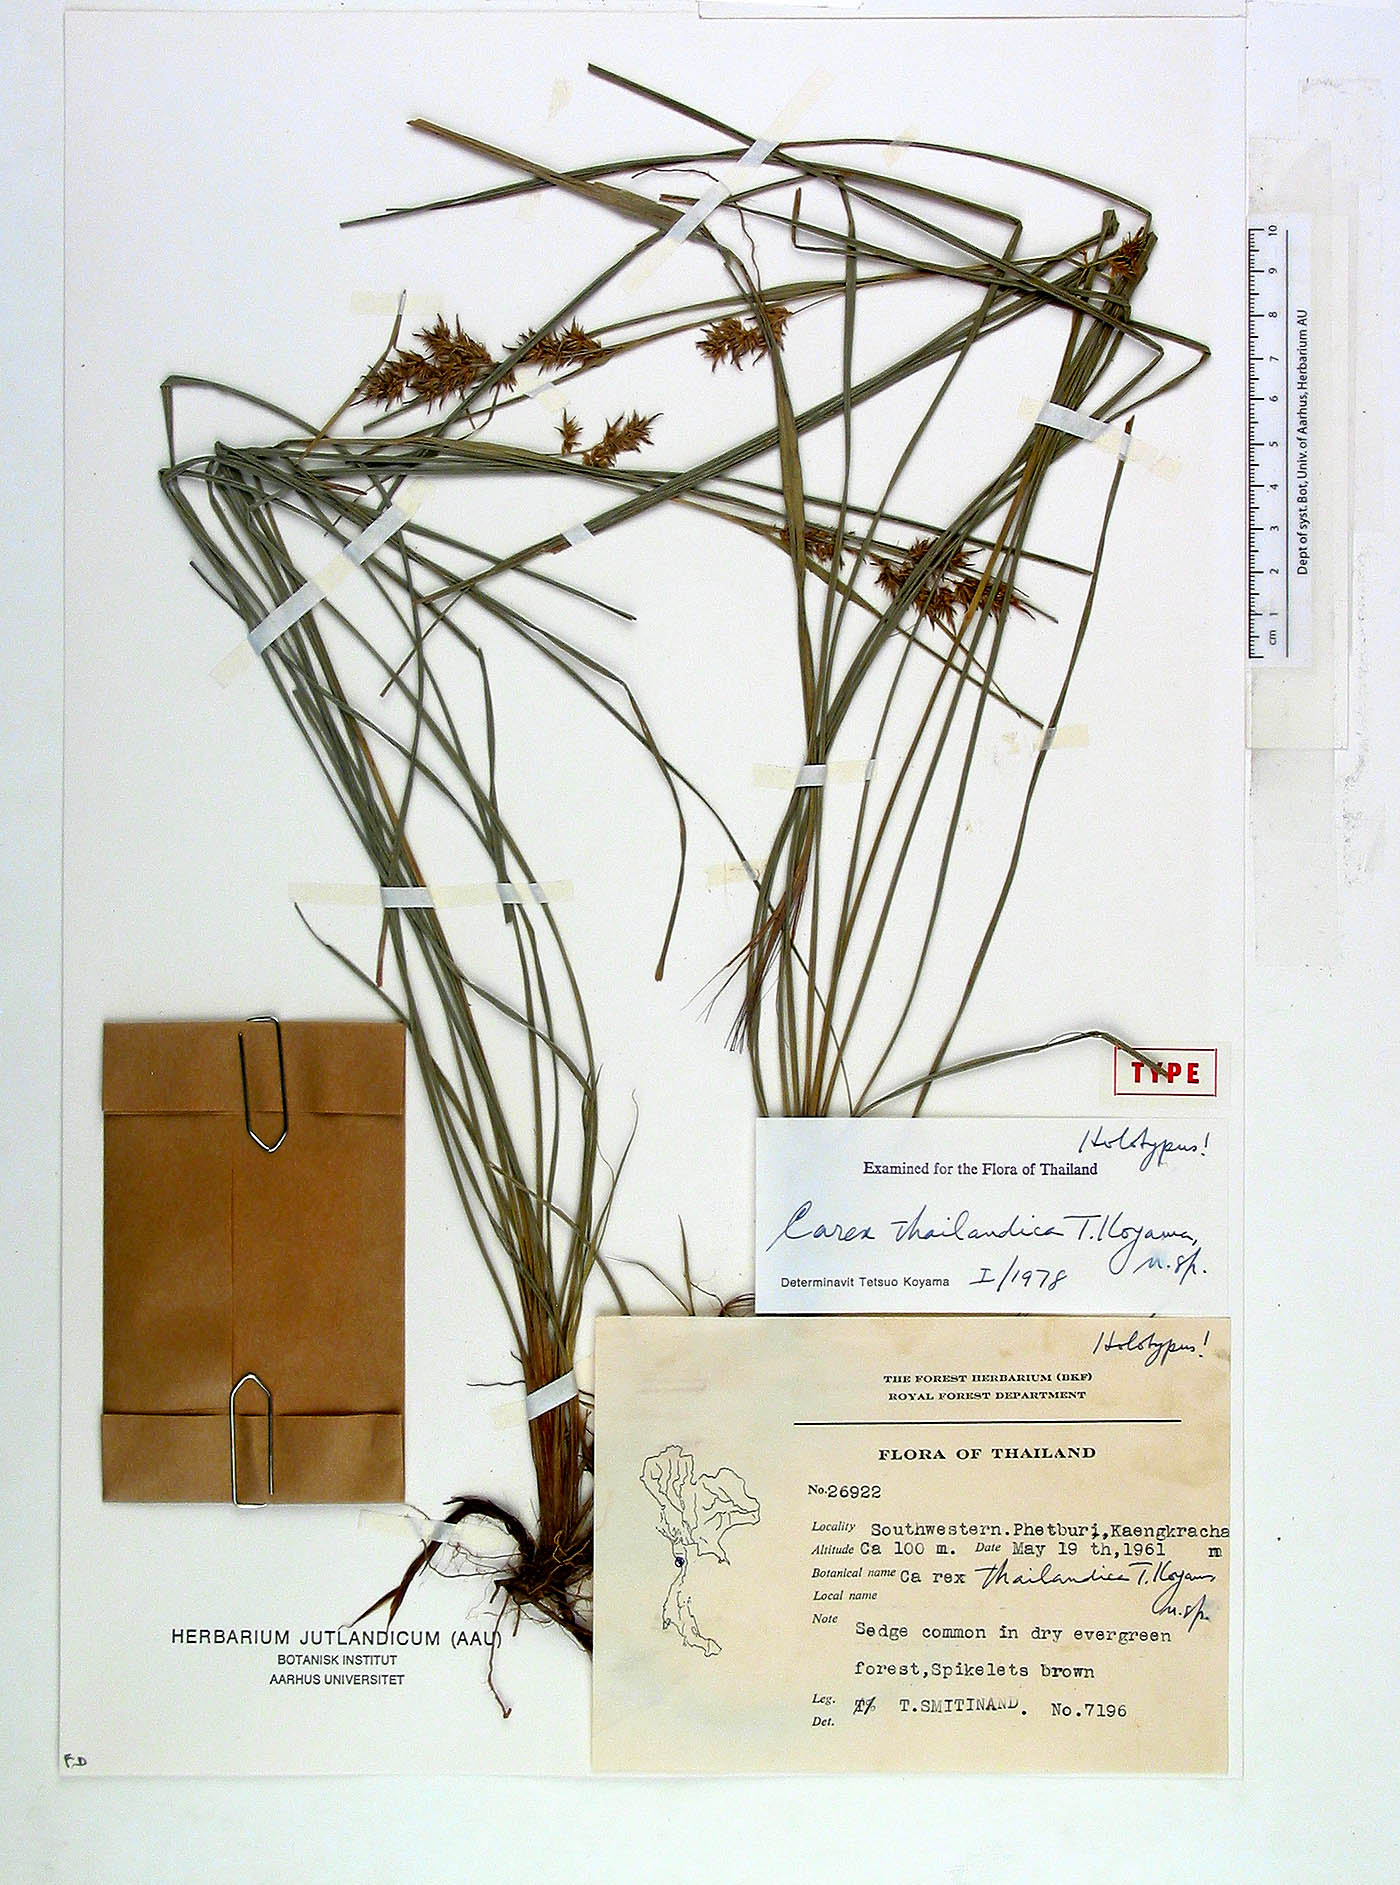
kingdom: Plantae
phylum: Tracheophyta
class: Liliopsida
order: Poales
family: Cyperaceae
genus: Carex
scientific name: Carex thailandica
